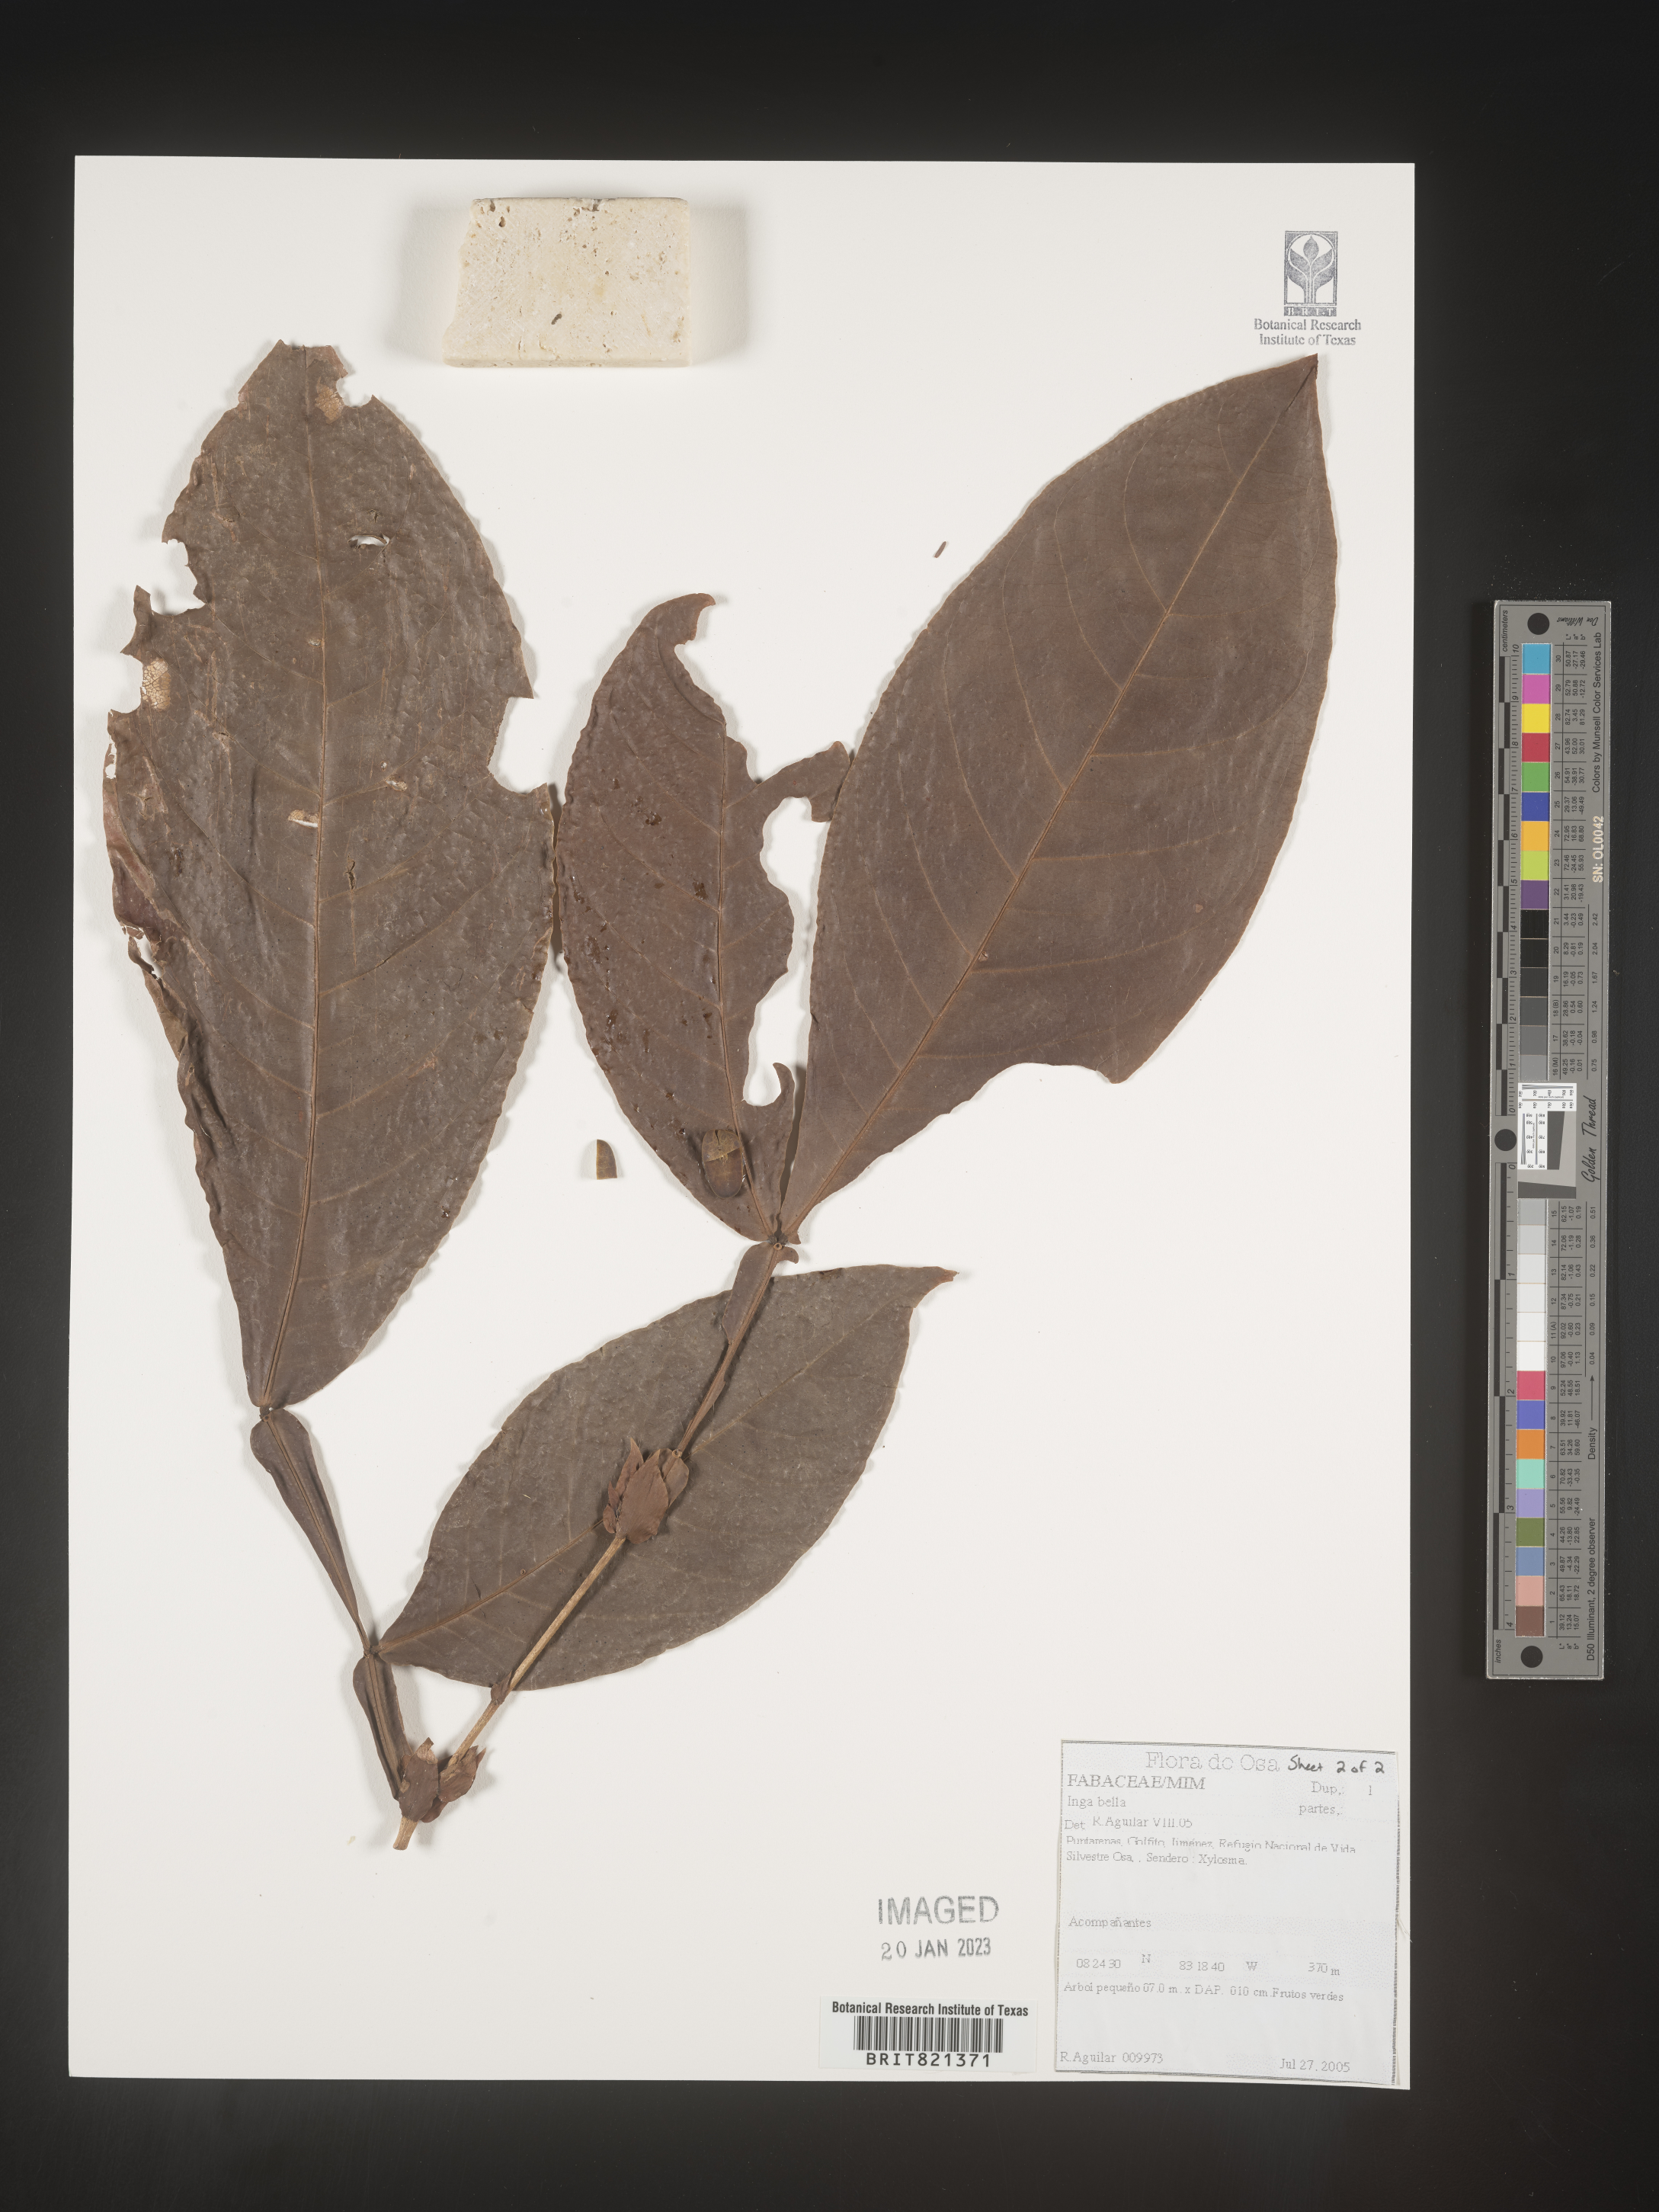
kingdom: Plantae
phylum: Tracheophyta
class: Magnoliopsida
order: Fabales
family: Fabaceae
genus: Inga
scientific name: Inga
